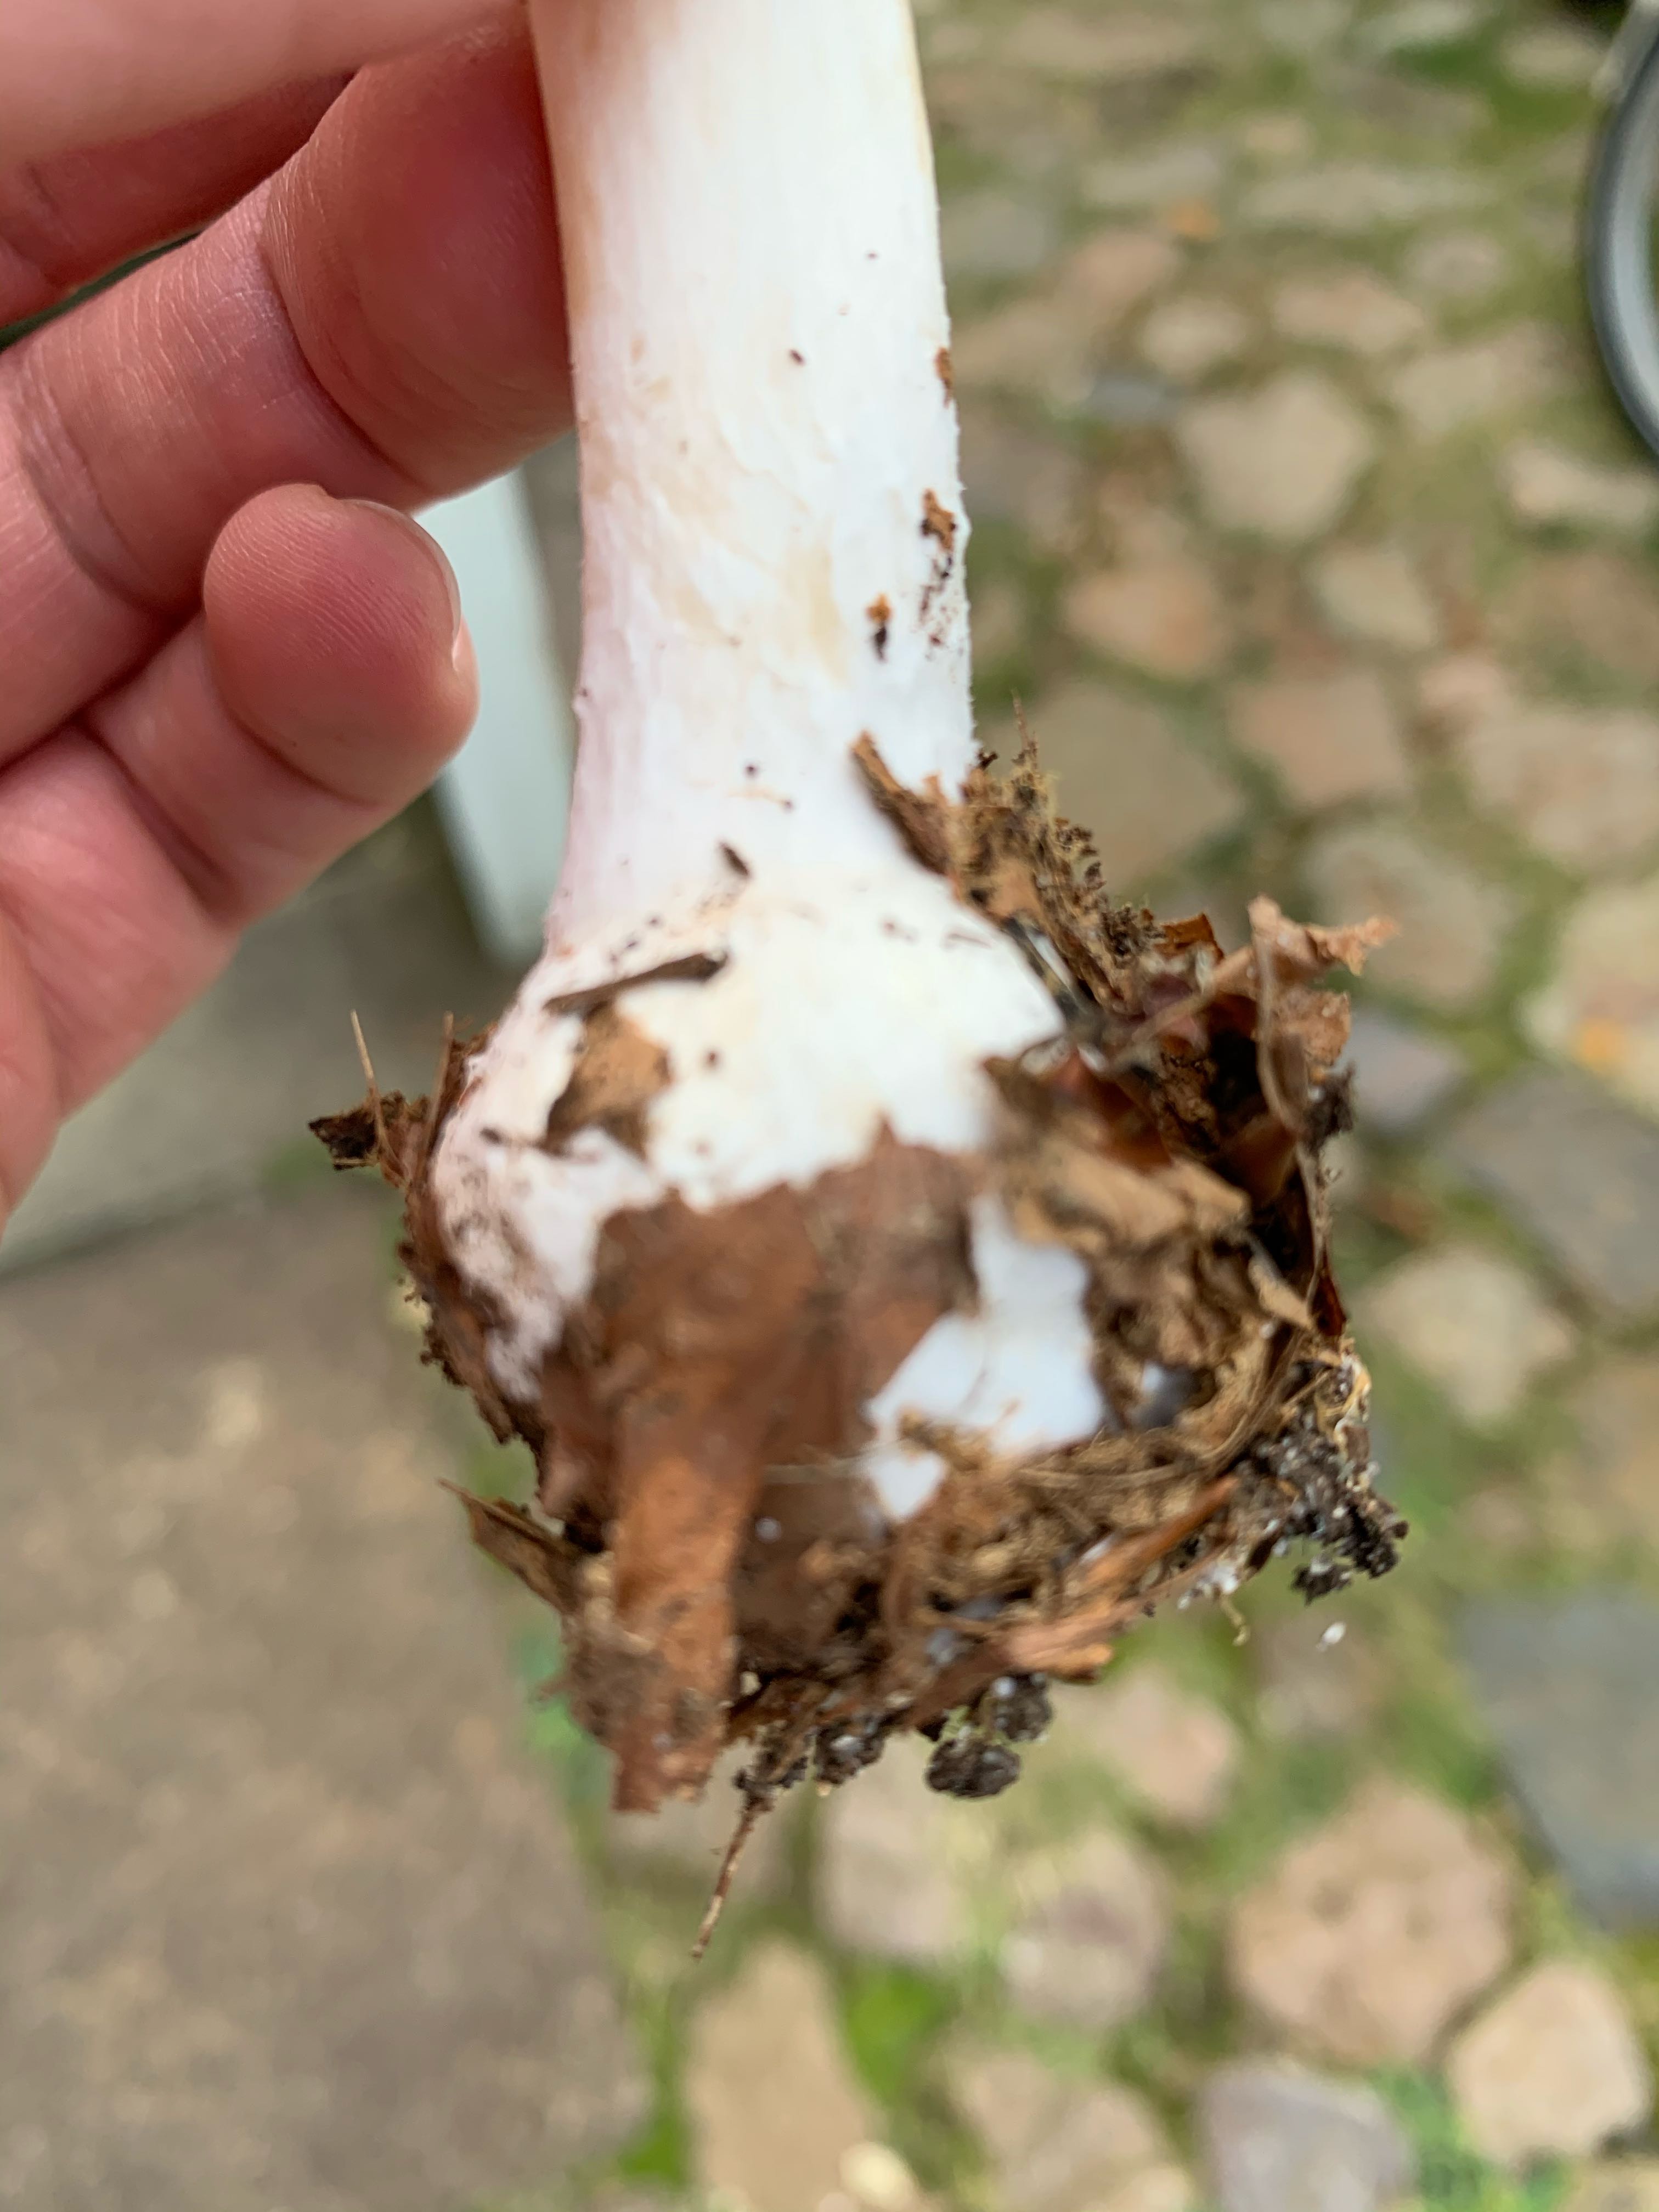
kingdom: Fungi
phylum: Basidiomycota
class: Agaricomycetes
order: Agaricales
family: Amanitaceae
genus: Amanita
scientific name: Amanita gemmata
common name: okkergul fluesvamp
